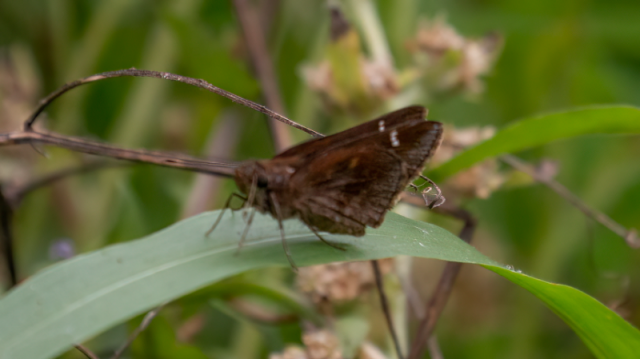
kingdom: Animalia
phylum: Arthropoda
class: Insecta
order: Lepidoptera
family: Hesperiidae
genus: Lerema
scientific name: Lerema accius
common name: Clouded Skipper
